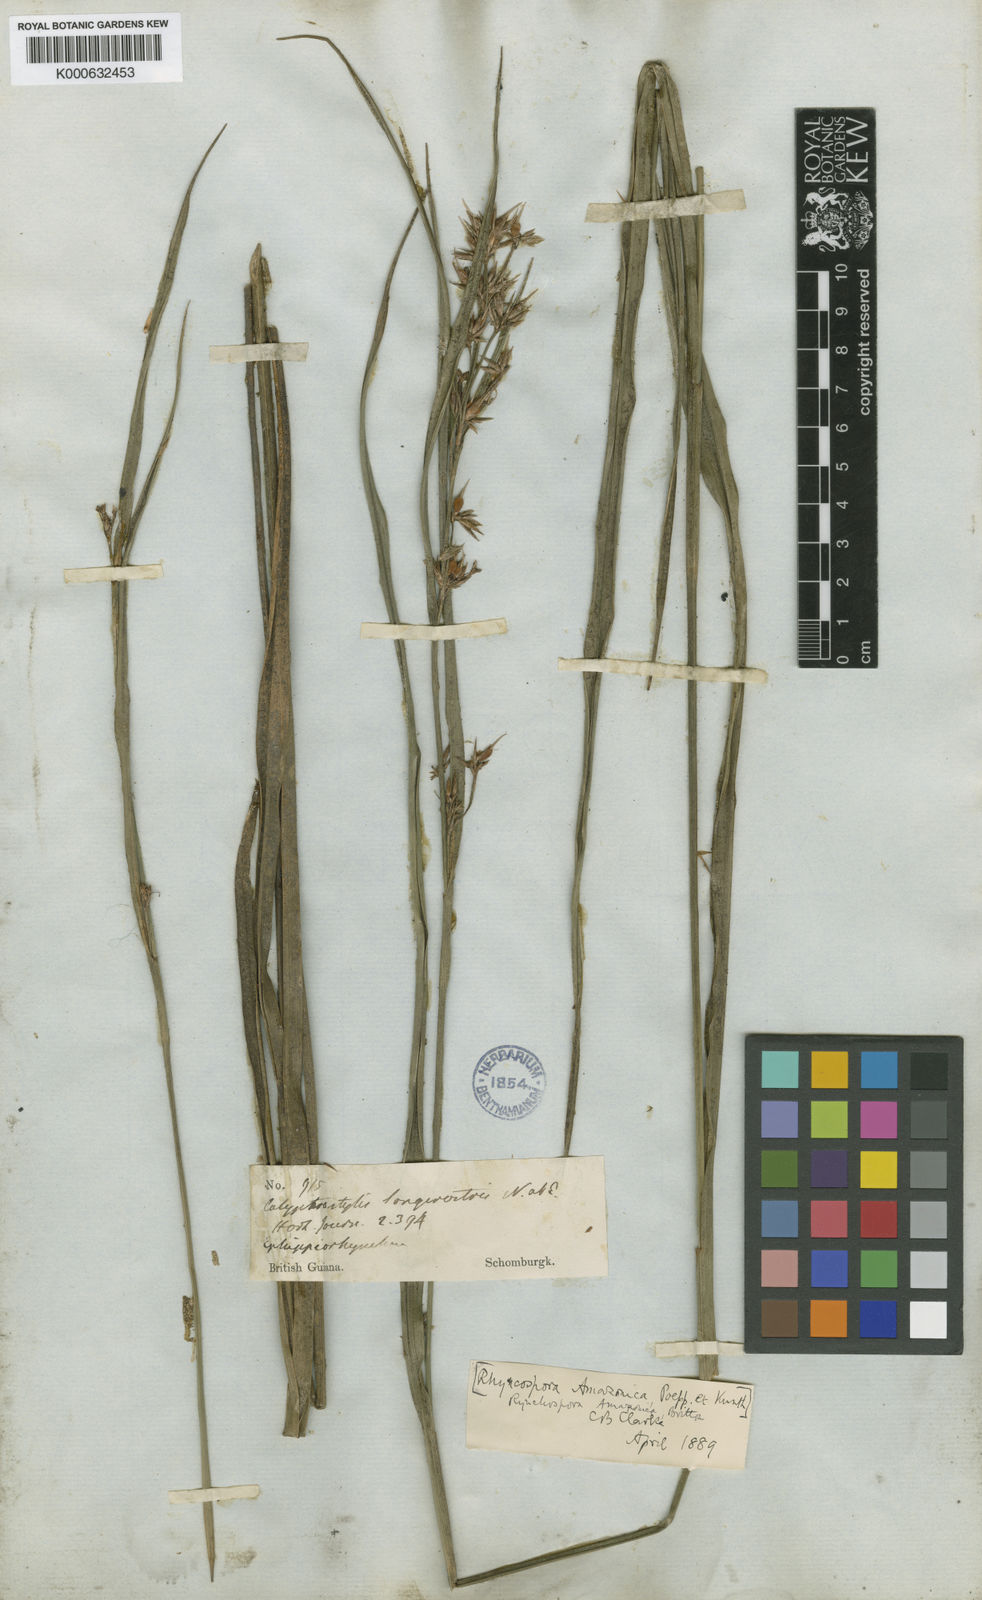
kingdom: Plantae
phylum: Tracheophyta
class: Liliopsida
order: Poales
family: Cyperaceae
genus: Rhynchospora
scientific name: Rhynchospora amazonica
